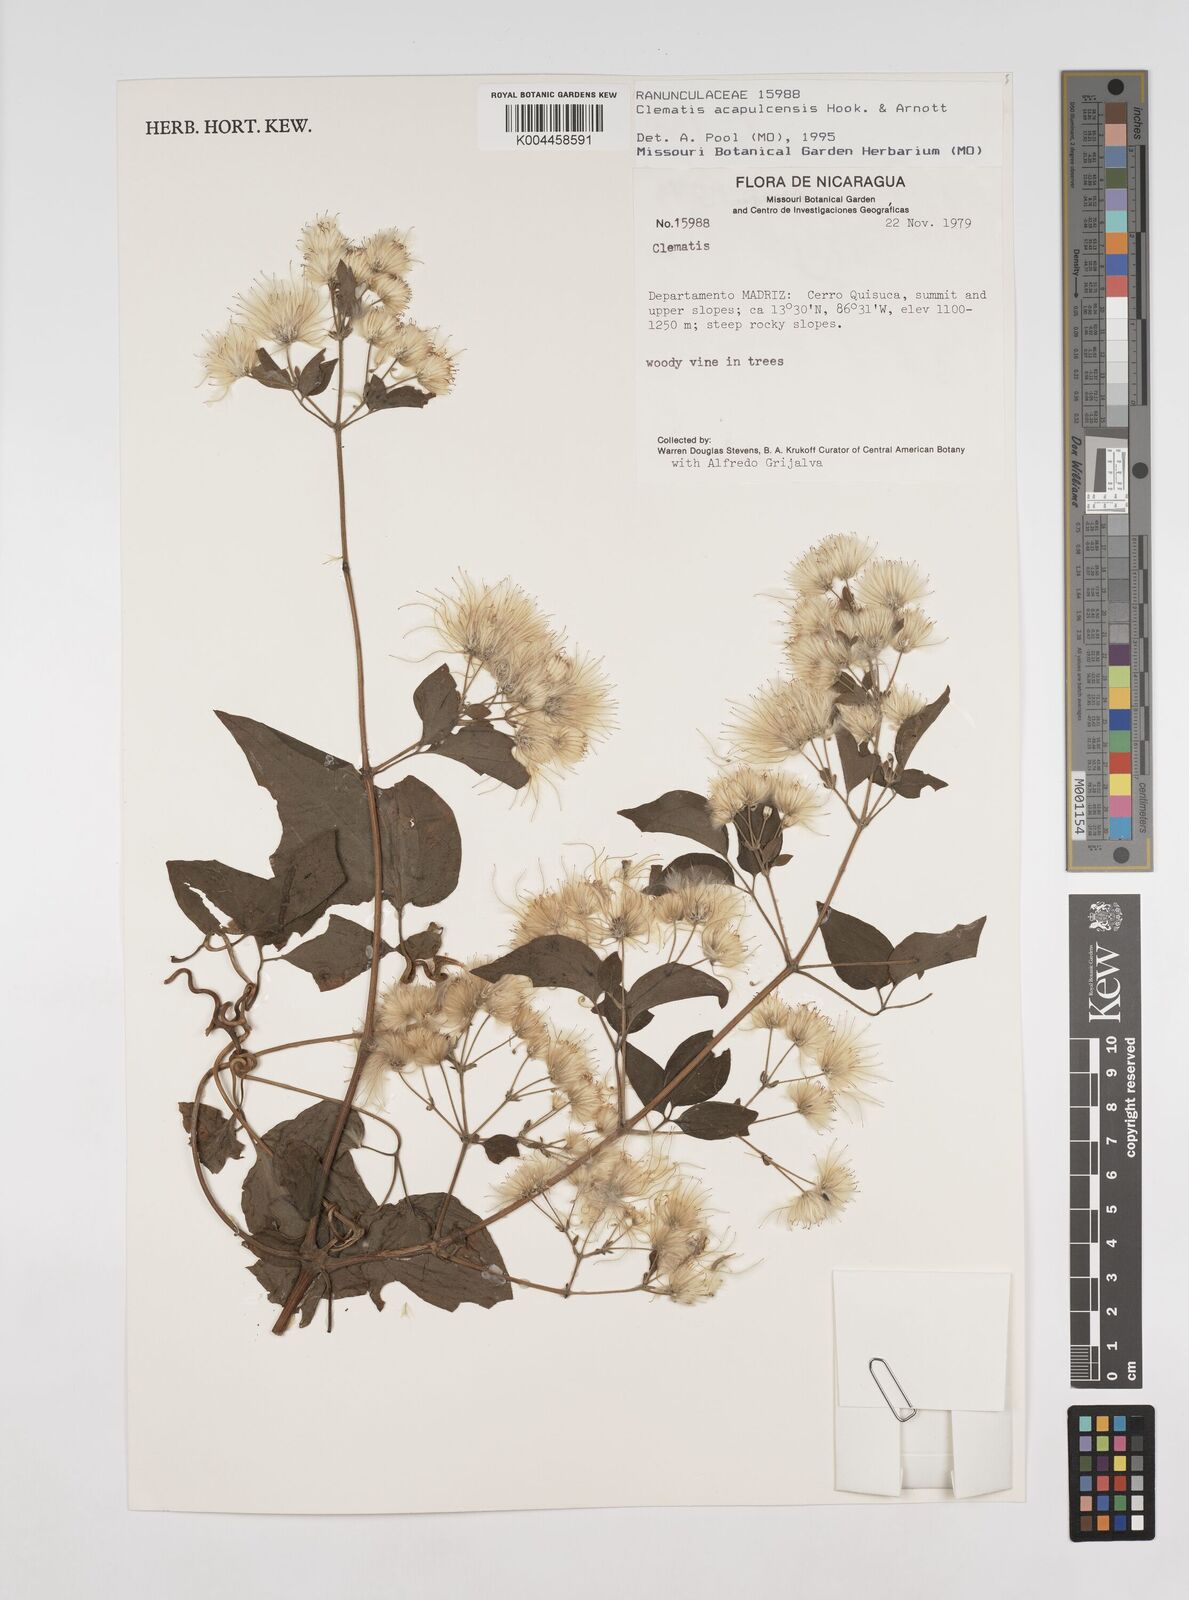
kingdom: Plantae
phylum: Tracheophyta
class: Magnoliopsida
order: Ranunculales
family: Ranunculaceae
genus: Clematis
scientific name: Clematis acapulcensis
